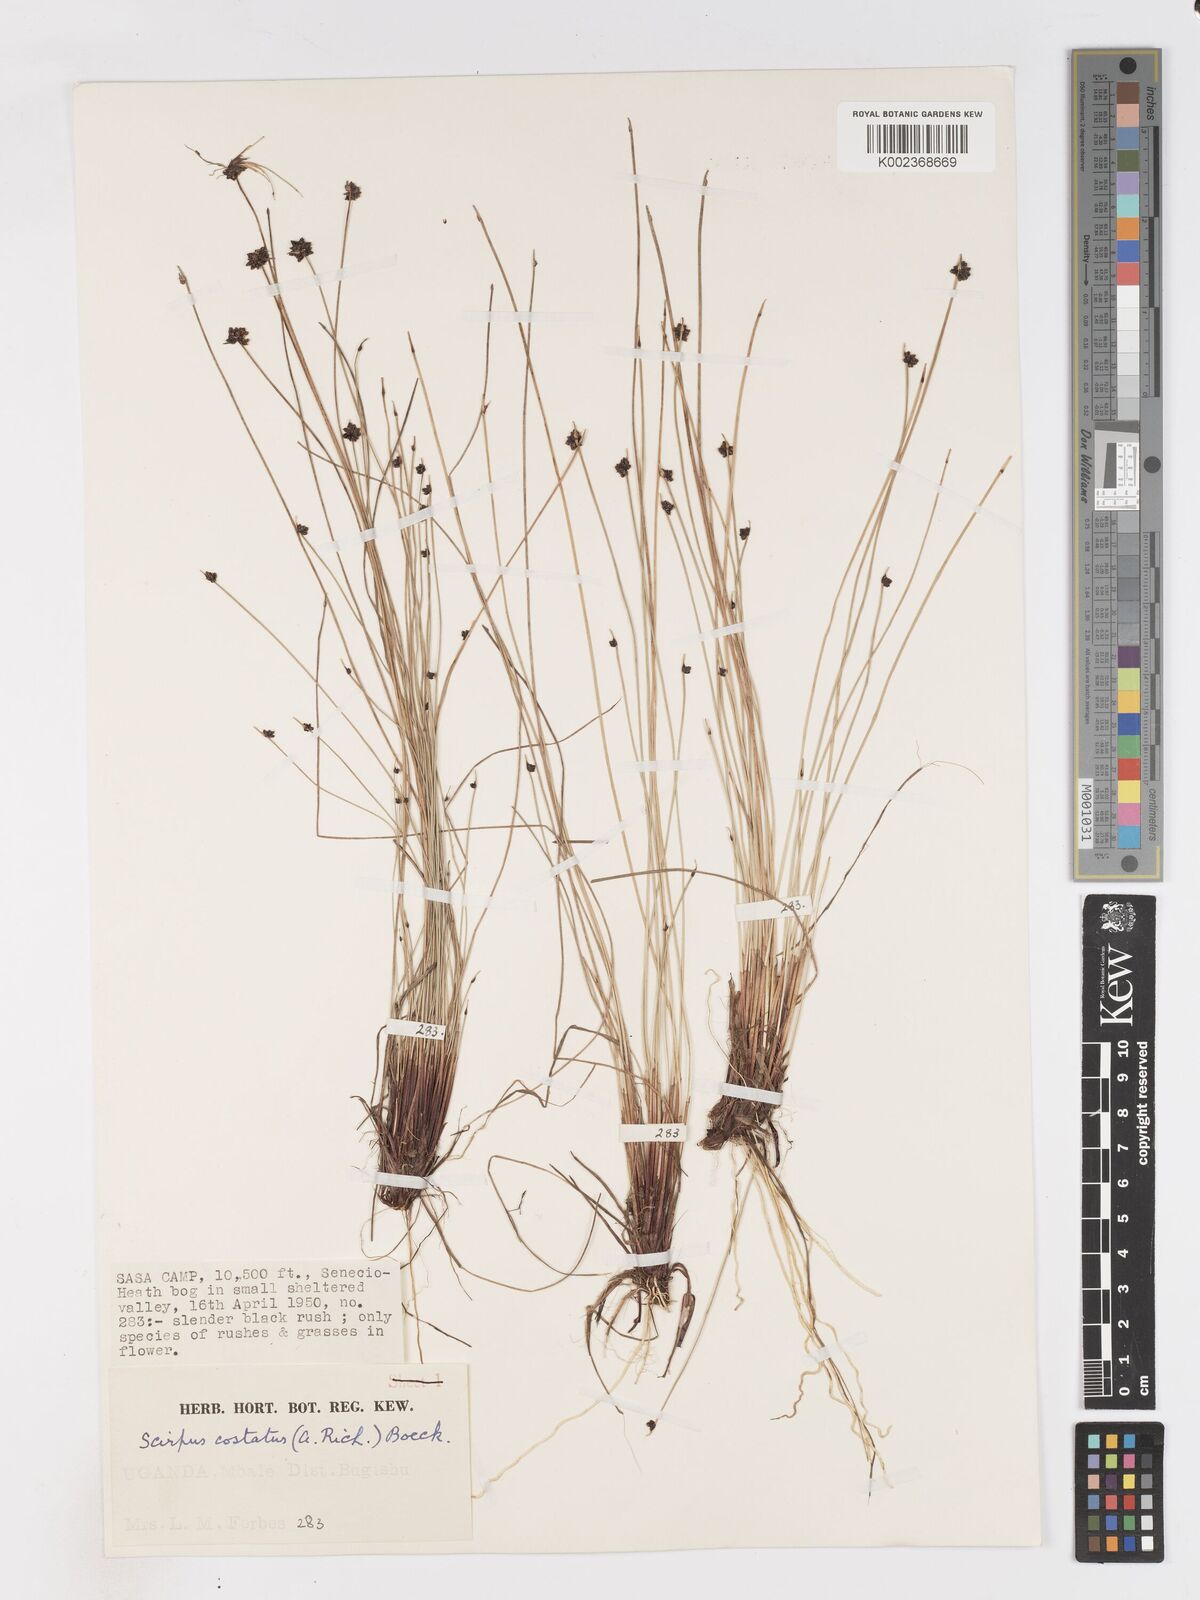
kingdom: Plantae
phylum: Tracheophyta
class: Liliopsida
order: Poales
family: Cyperaceae
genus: Isolepis
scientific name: Isolepis costata
